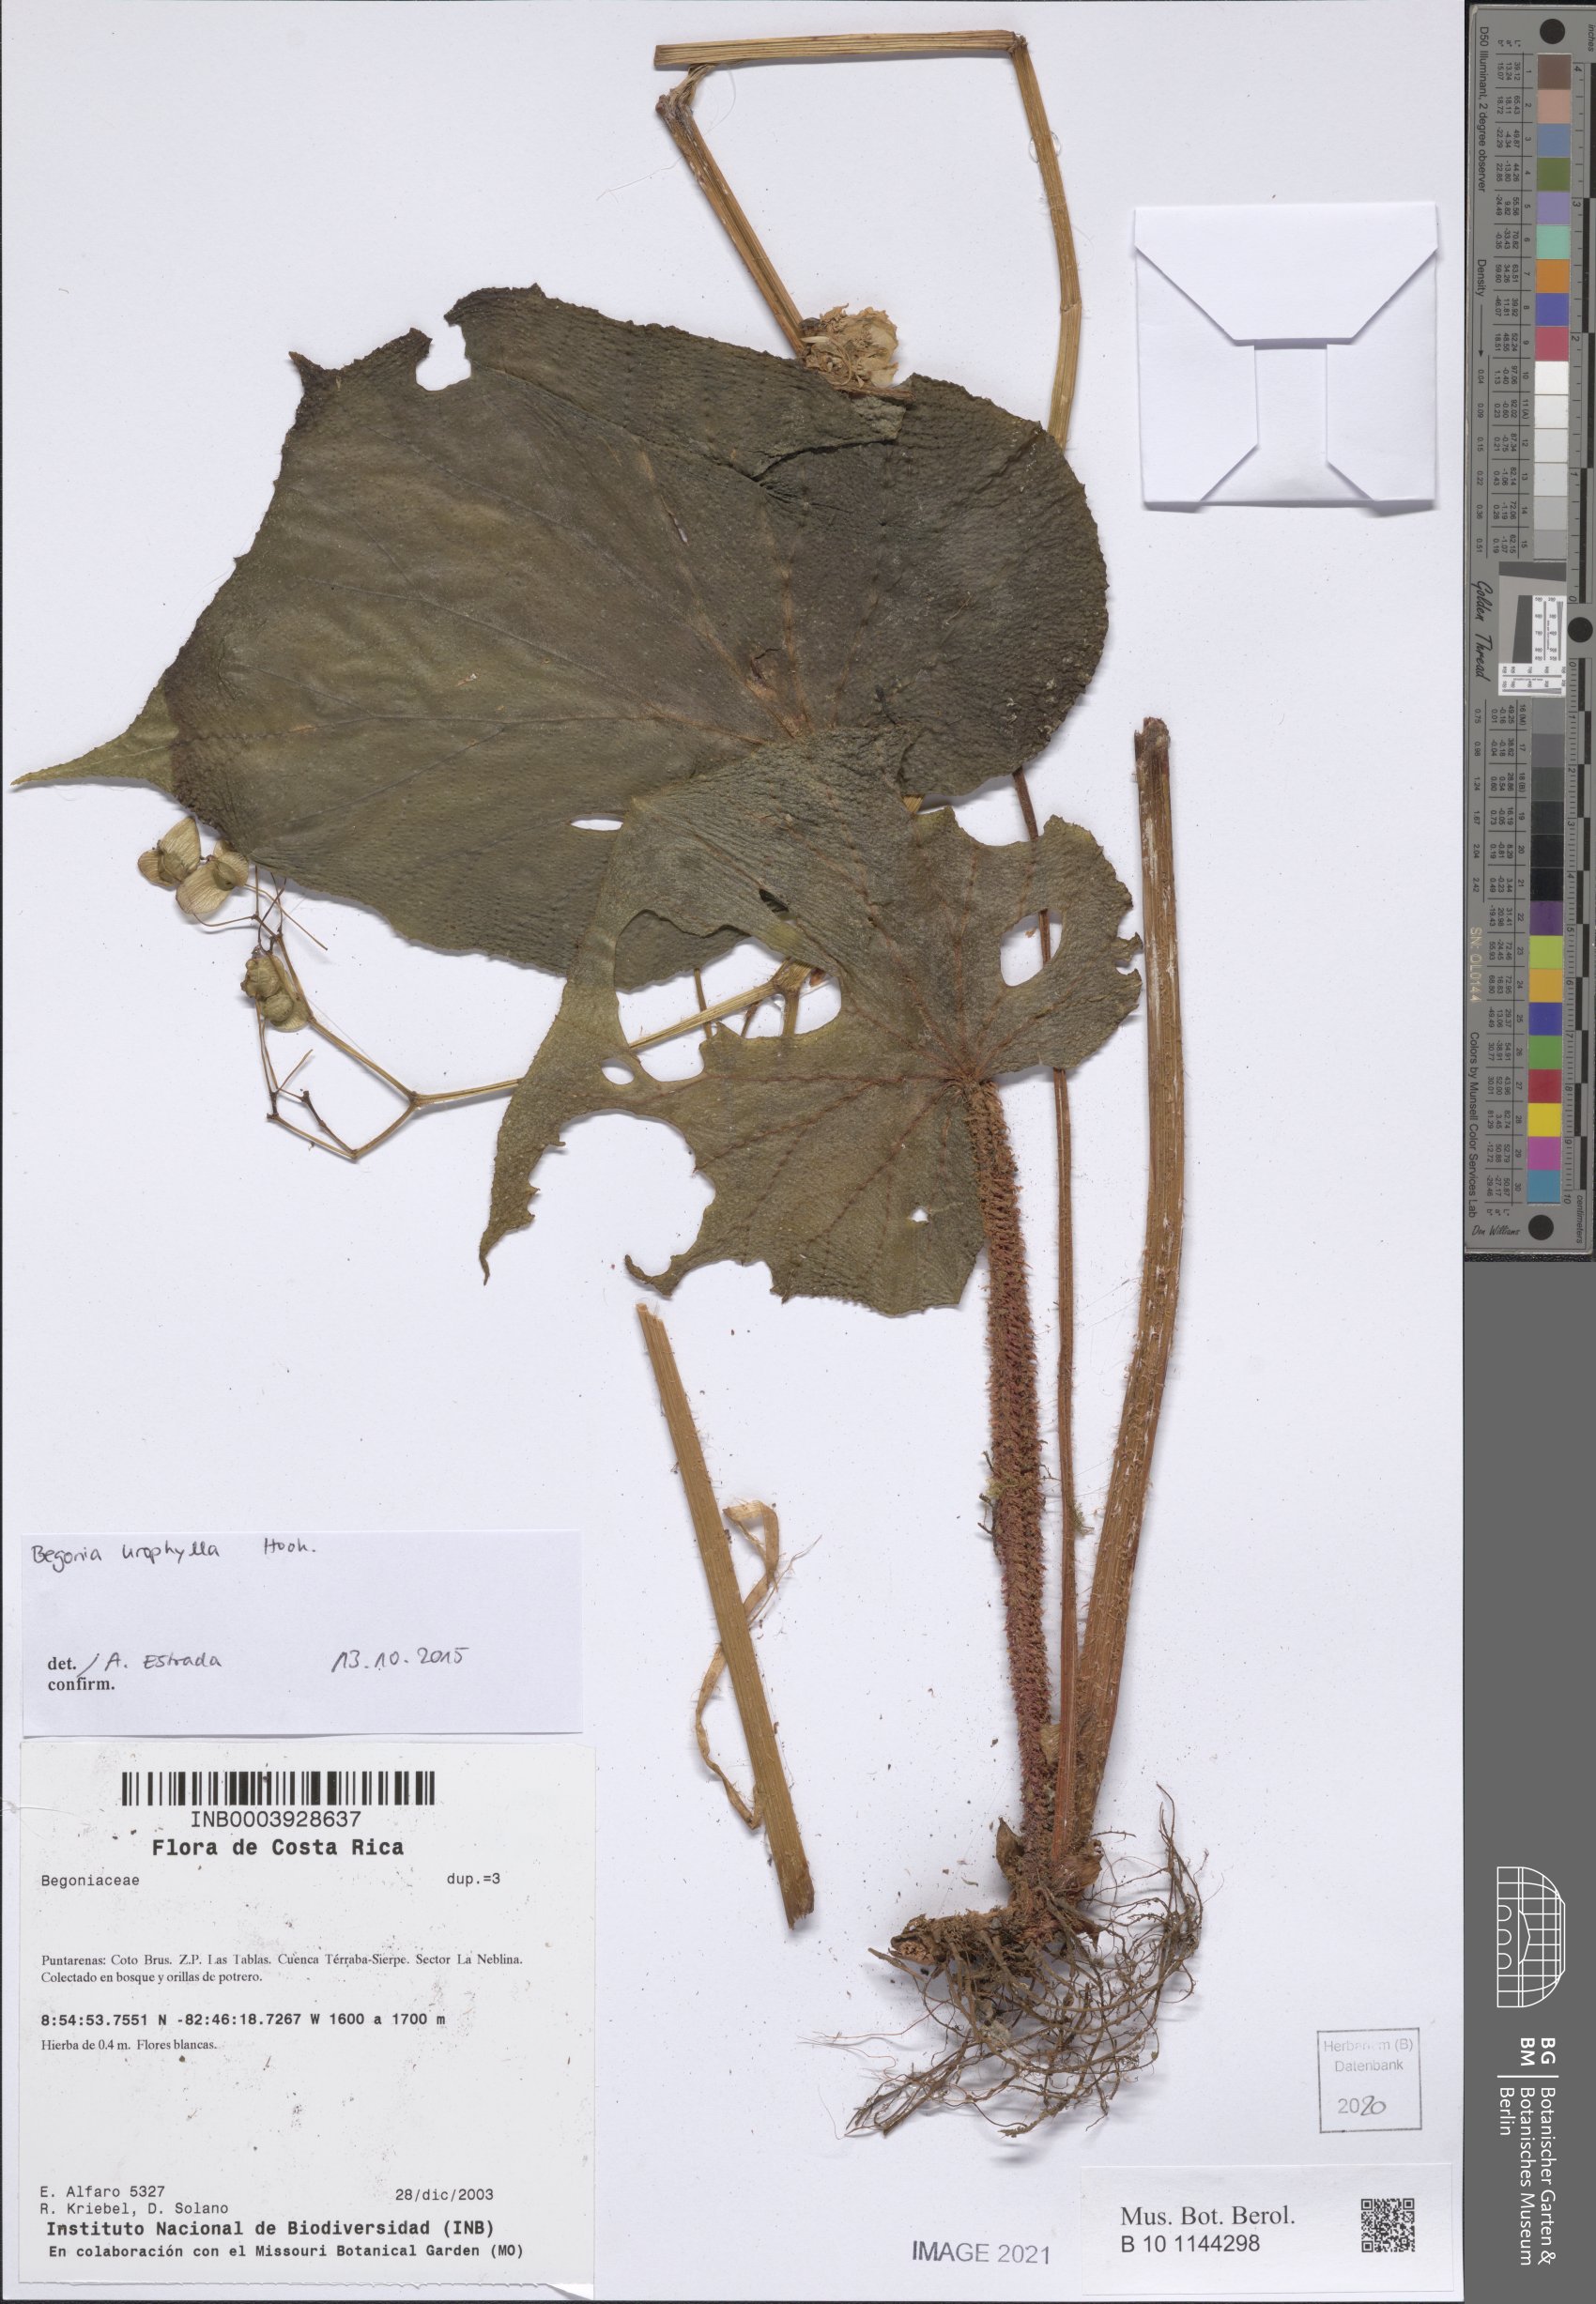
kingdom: Plantae
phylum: Tracheophyta
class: Magnoliopsida
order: Cucurbitales
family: Begoniaceae
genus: Begonia
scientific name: Begonia vestita
